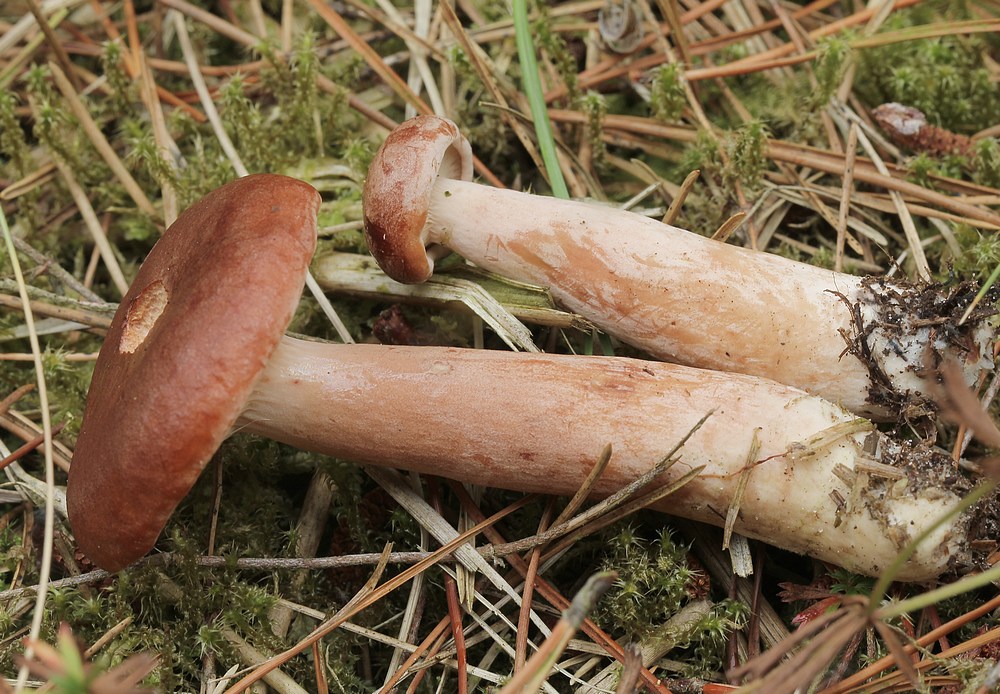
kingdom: Fungi
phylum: Basidiomycota
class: Agaricomycetes
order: Russulales
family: Russulaceae
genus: Lactarius
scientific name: Lactarius rufus
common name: rødbrun mælkehat
